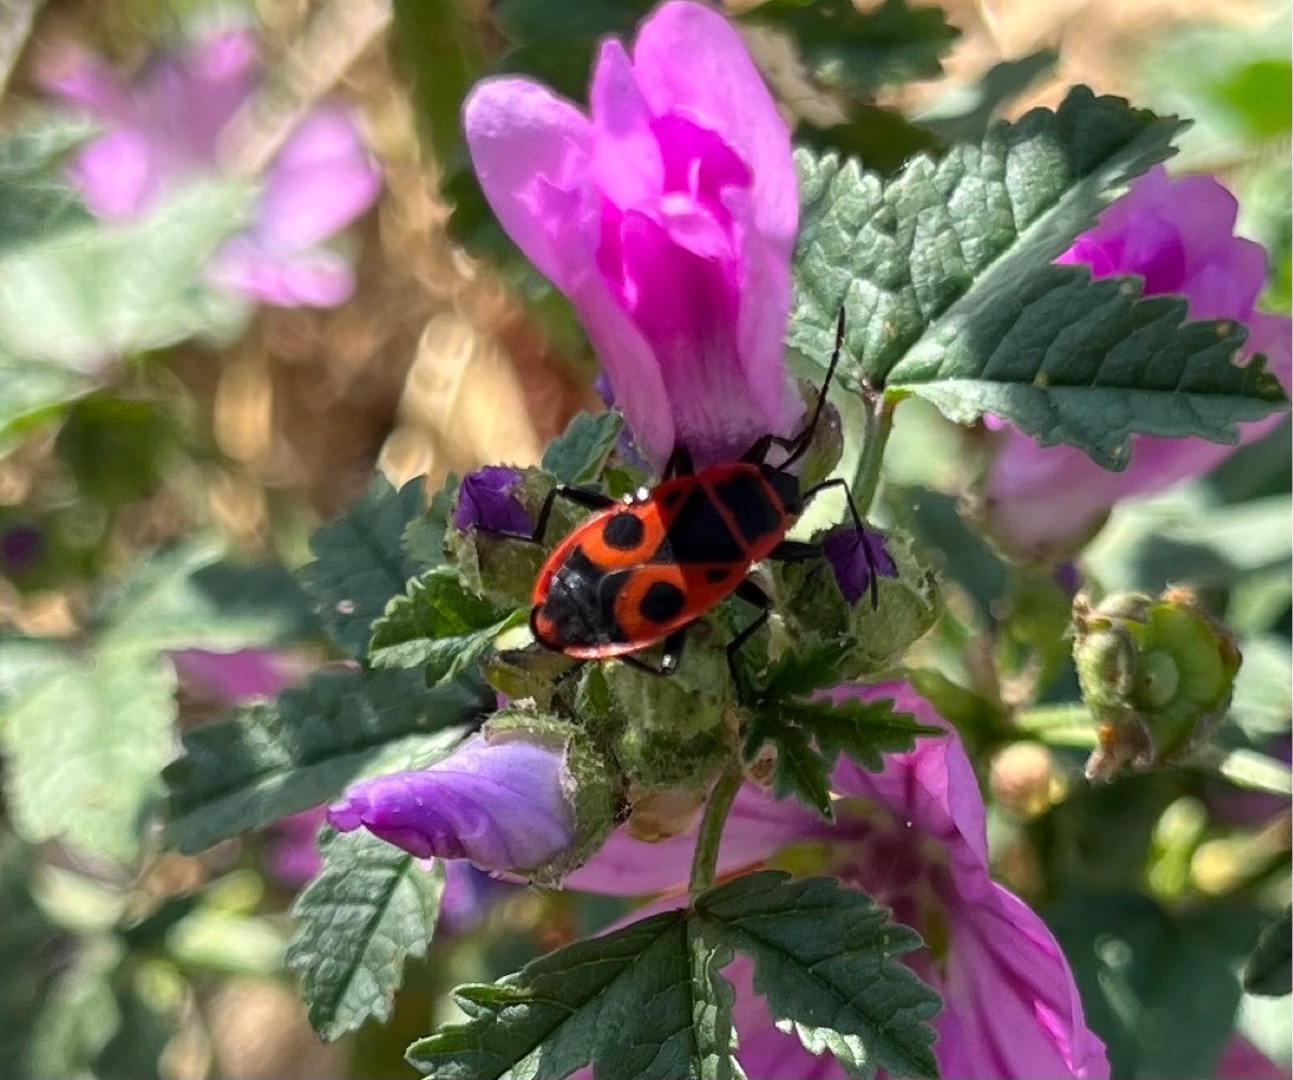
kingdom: Animalia
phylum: Arthropoda
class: Insecta
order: Hemiptera
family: Pyrrhocoridae
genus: Pyrrhocoris
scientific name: Pyrrhocoris apterus
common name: Ildtæge
